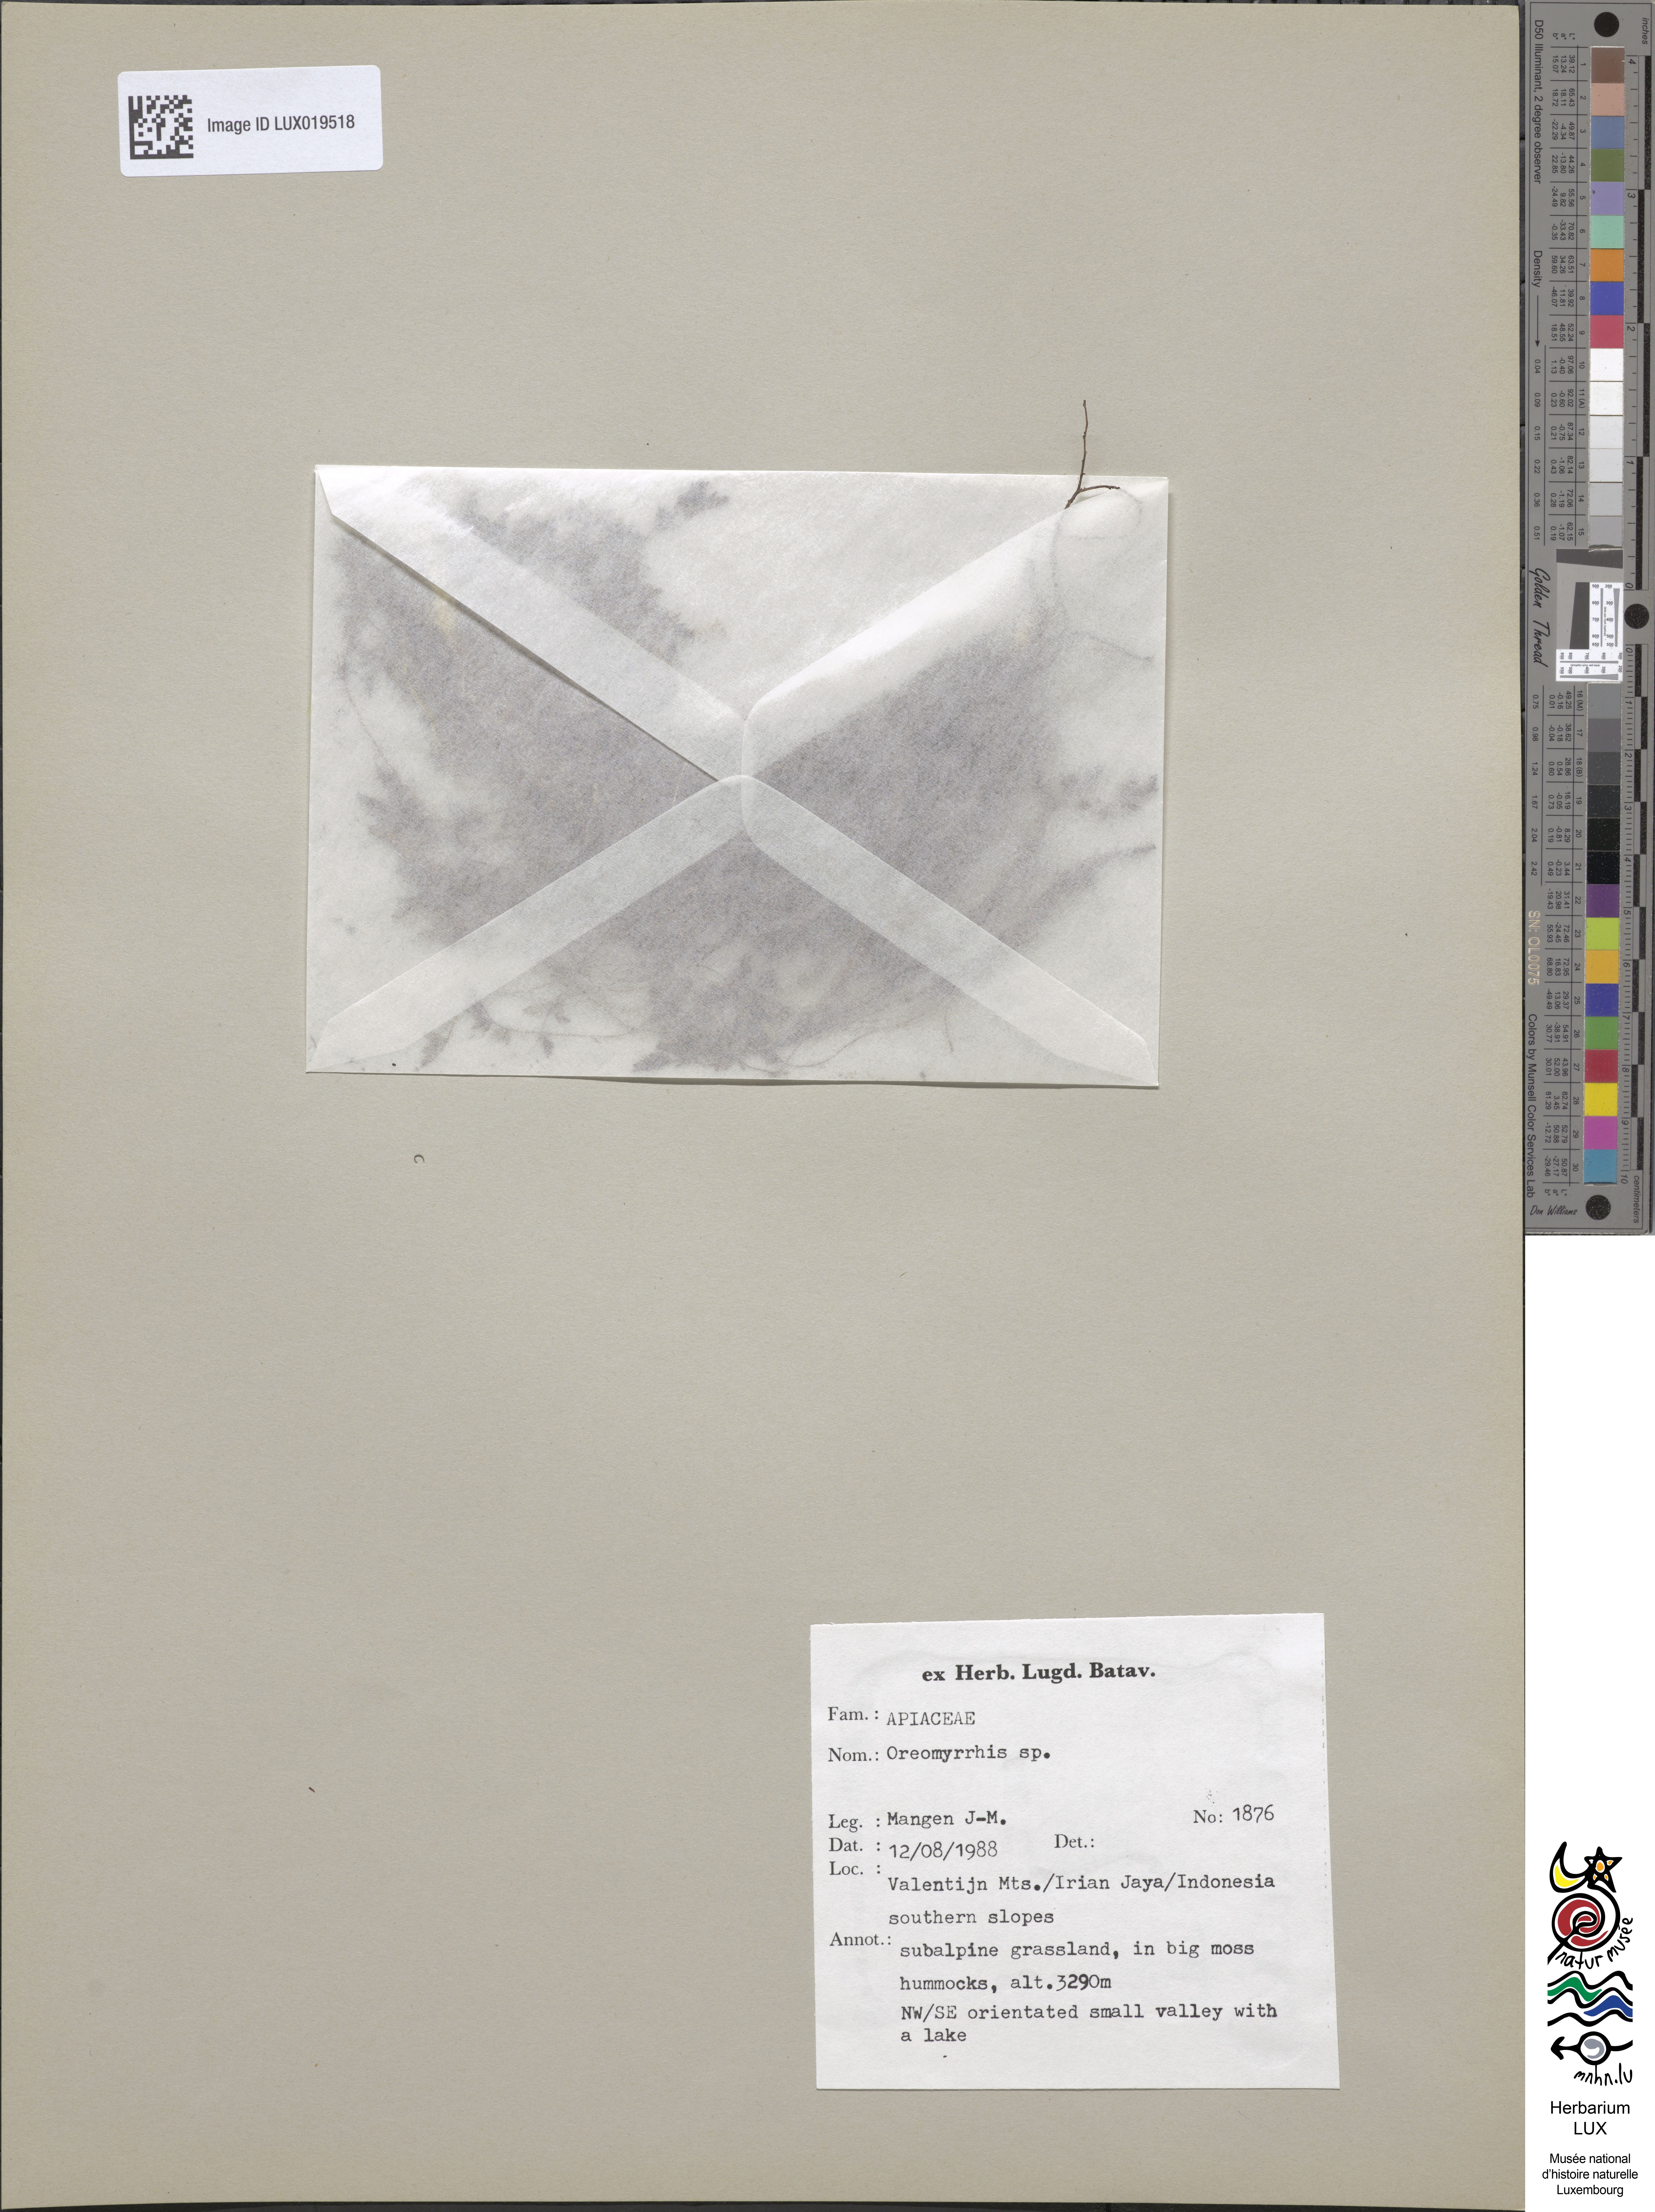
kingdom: Plantae
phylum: Tracheophyta
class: Magnoliopsida
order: Apiales
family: Apiaceae
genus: Chaerophyllum
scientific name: Chaerophyllum papuanum
